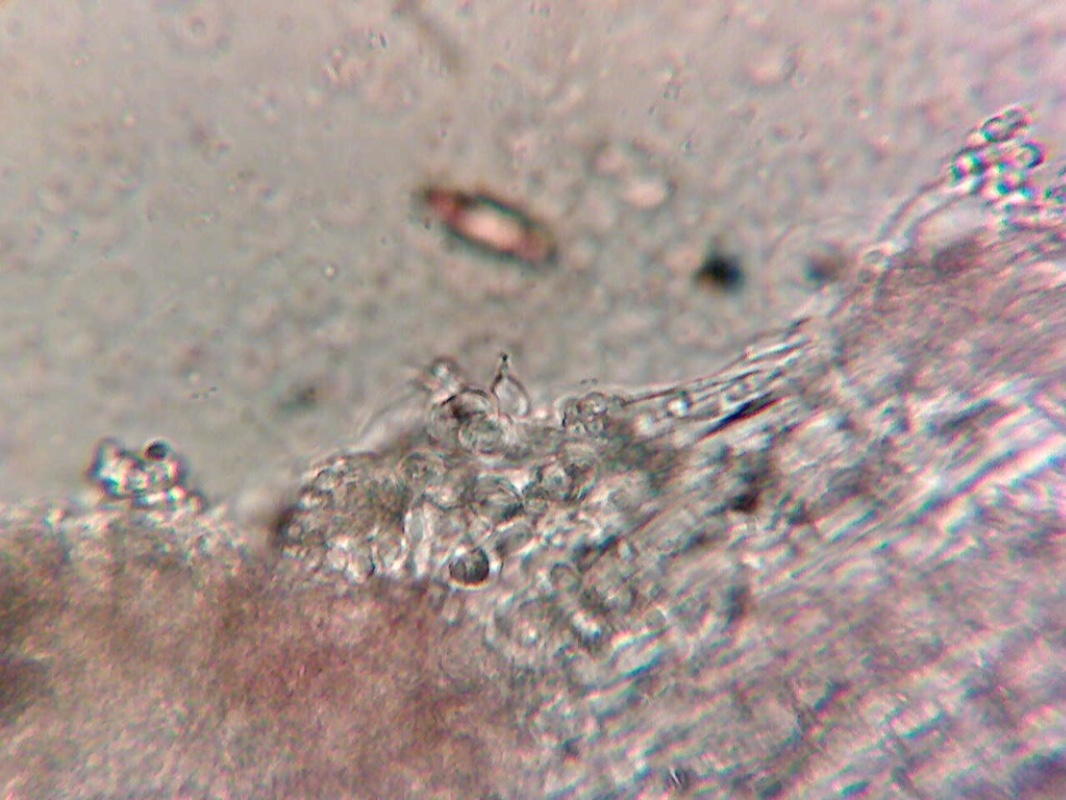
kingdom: Fungi
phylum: Ascomycota
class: Sordariomycetes
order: Hypocreales
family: Cordycipitaceae
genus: Cordyceps
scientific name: Cordyceps farinosa
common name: melet snyltekølle
